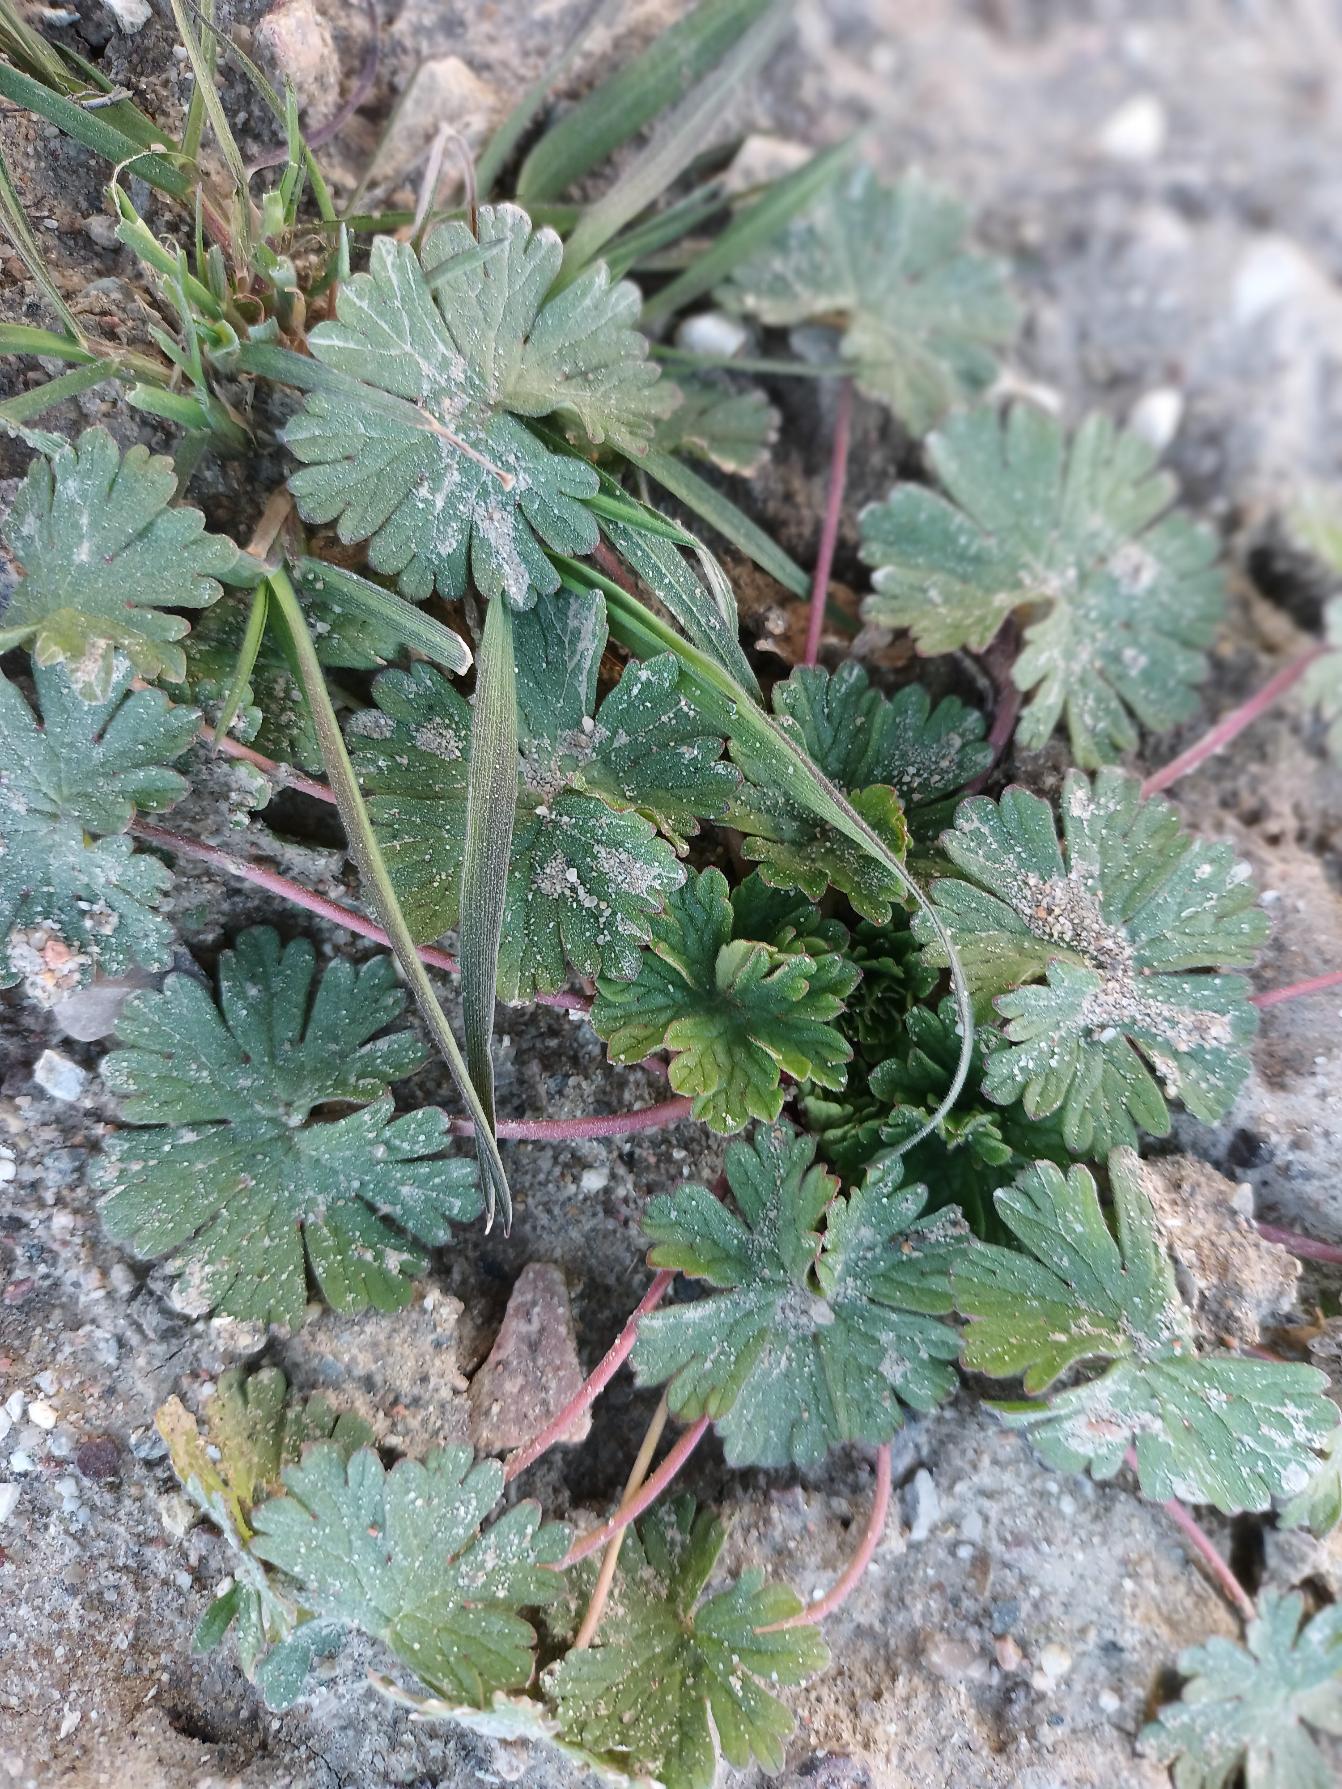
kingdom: Plantae
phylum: Tracheophyta
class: Magnoliopsida
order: Geraniales
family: Geraniaceae
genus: Geranium
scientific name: Geranium pusillum
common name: Liden storkenæb
